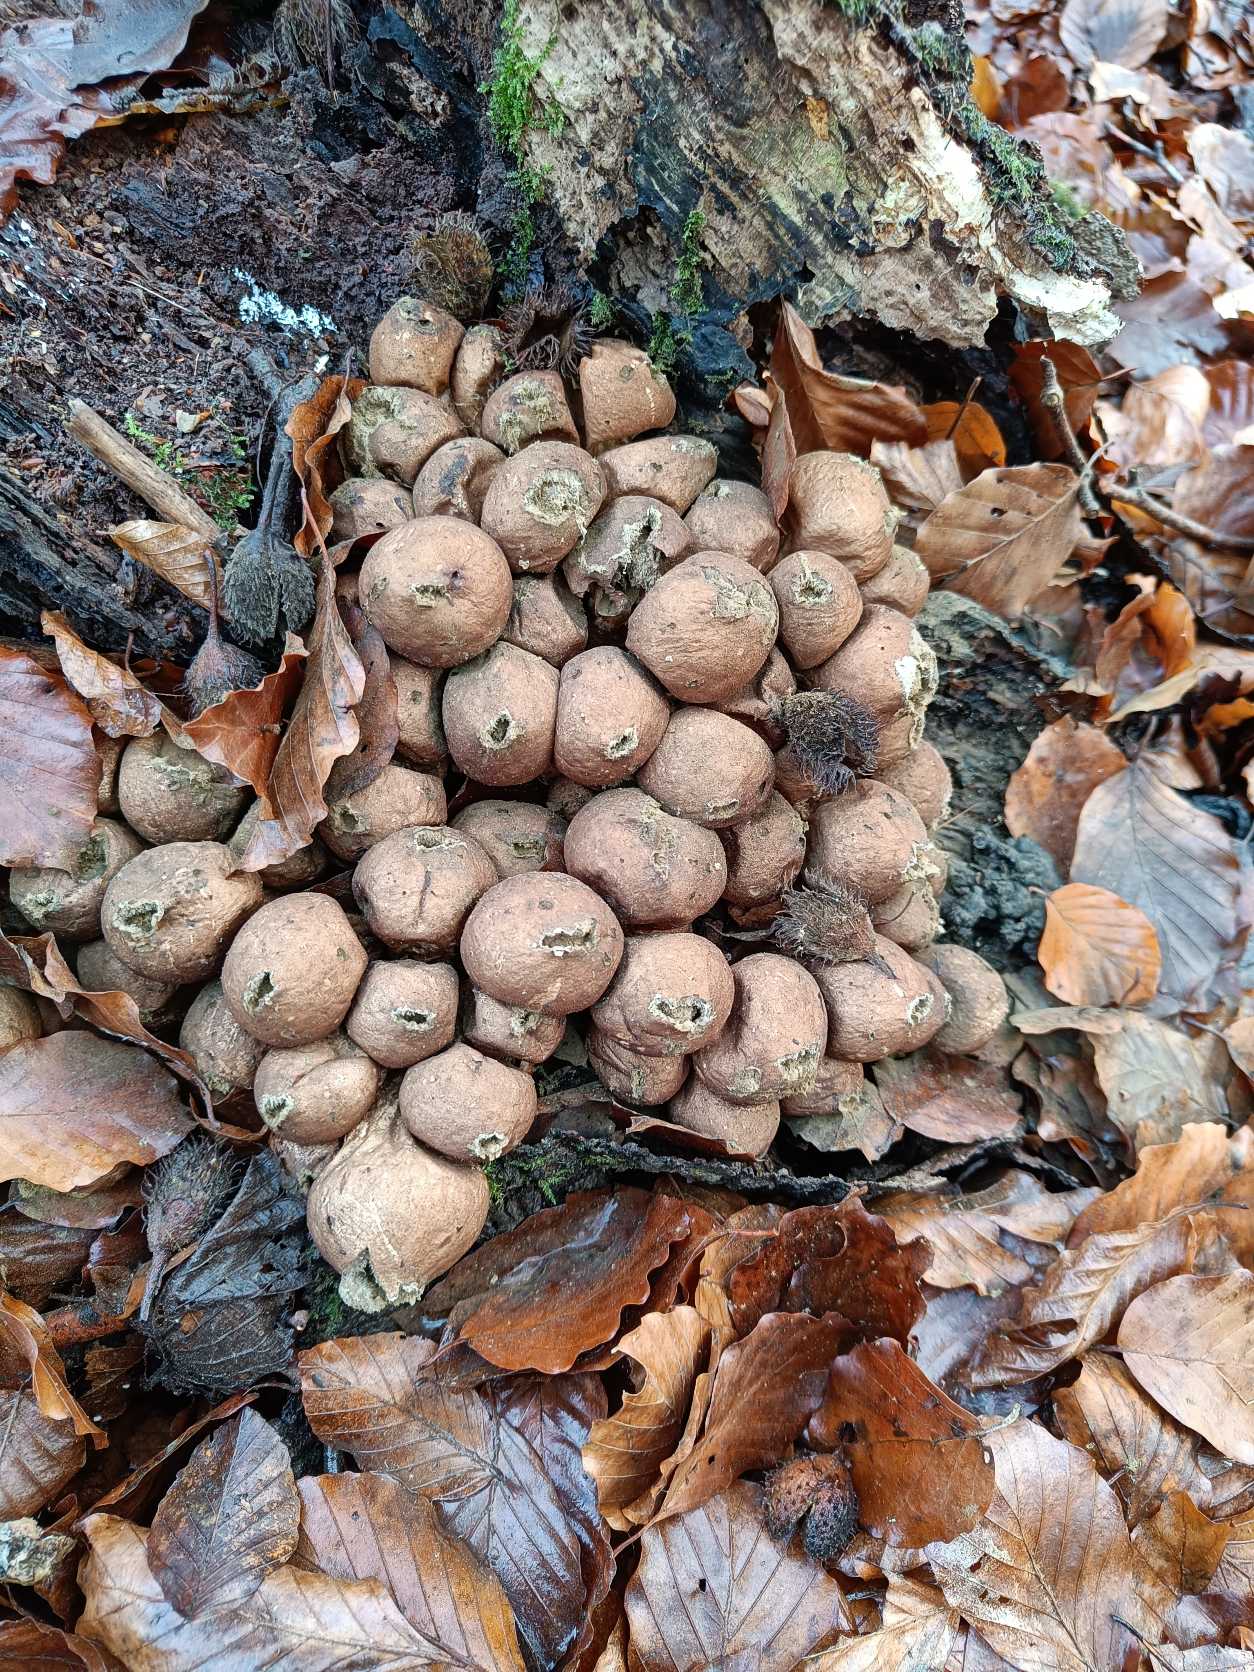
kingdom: Fungi
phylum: Basidiomycota
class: Agaricomycetes
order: Agaricales
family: Lycoperdaceae
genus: Apioperdon
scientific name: Apioperdon pyriforme
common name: Pære-støvbold
